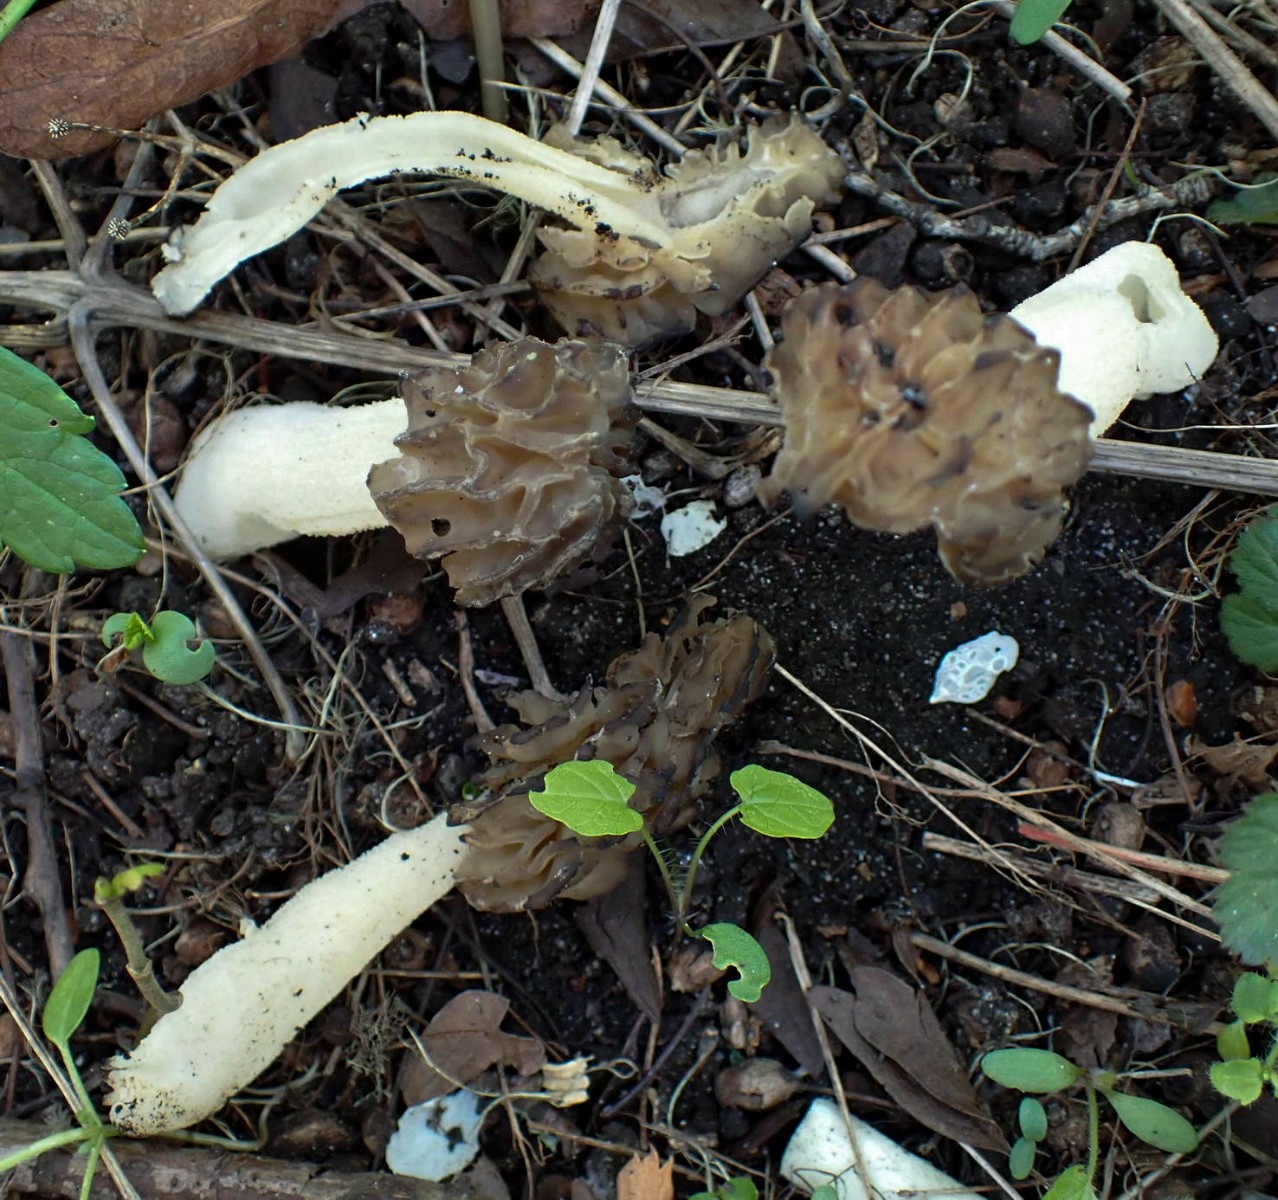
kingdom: Fungi
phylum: Ascomycota
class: Pezizomycetes
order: Pezizales
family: Morchellaceae
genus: Morchella
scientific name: Morchella semilibera
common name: hætte-morkel
